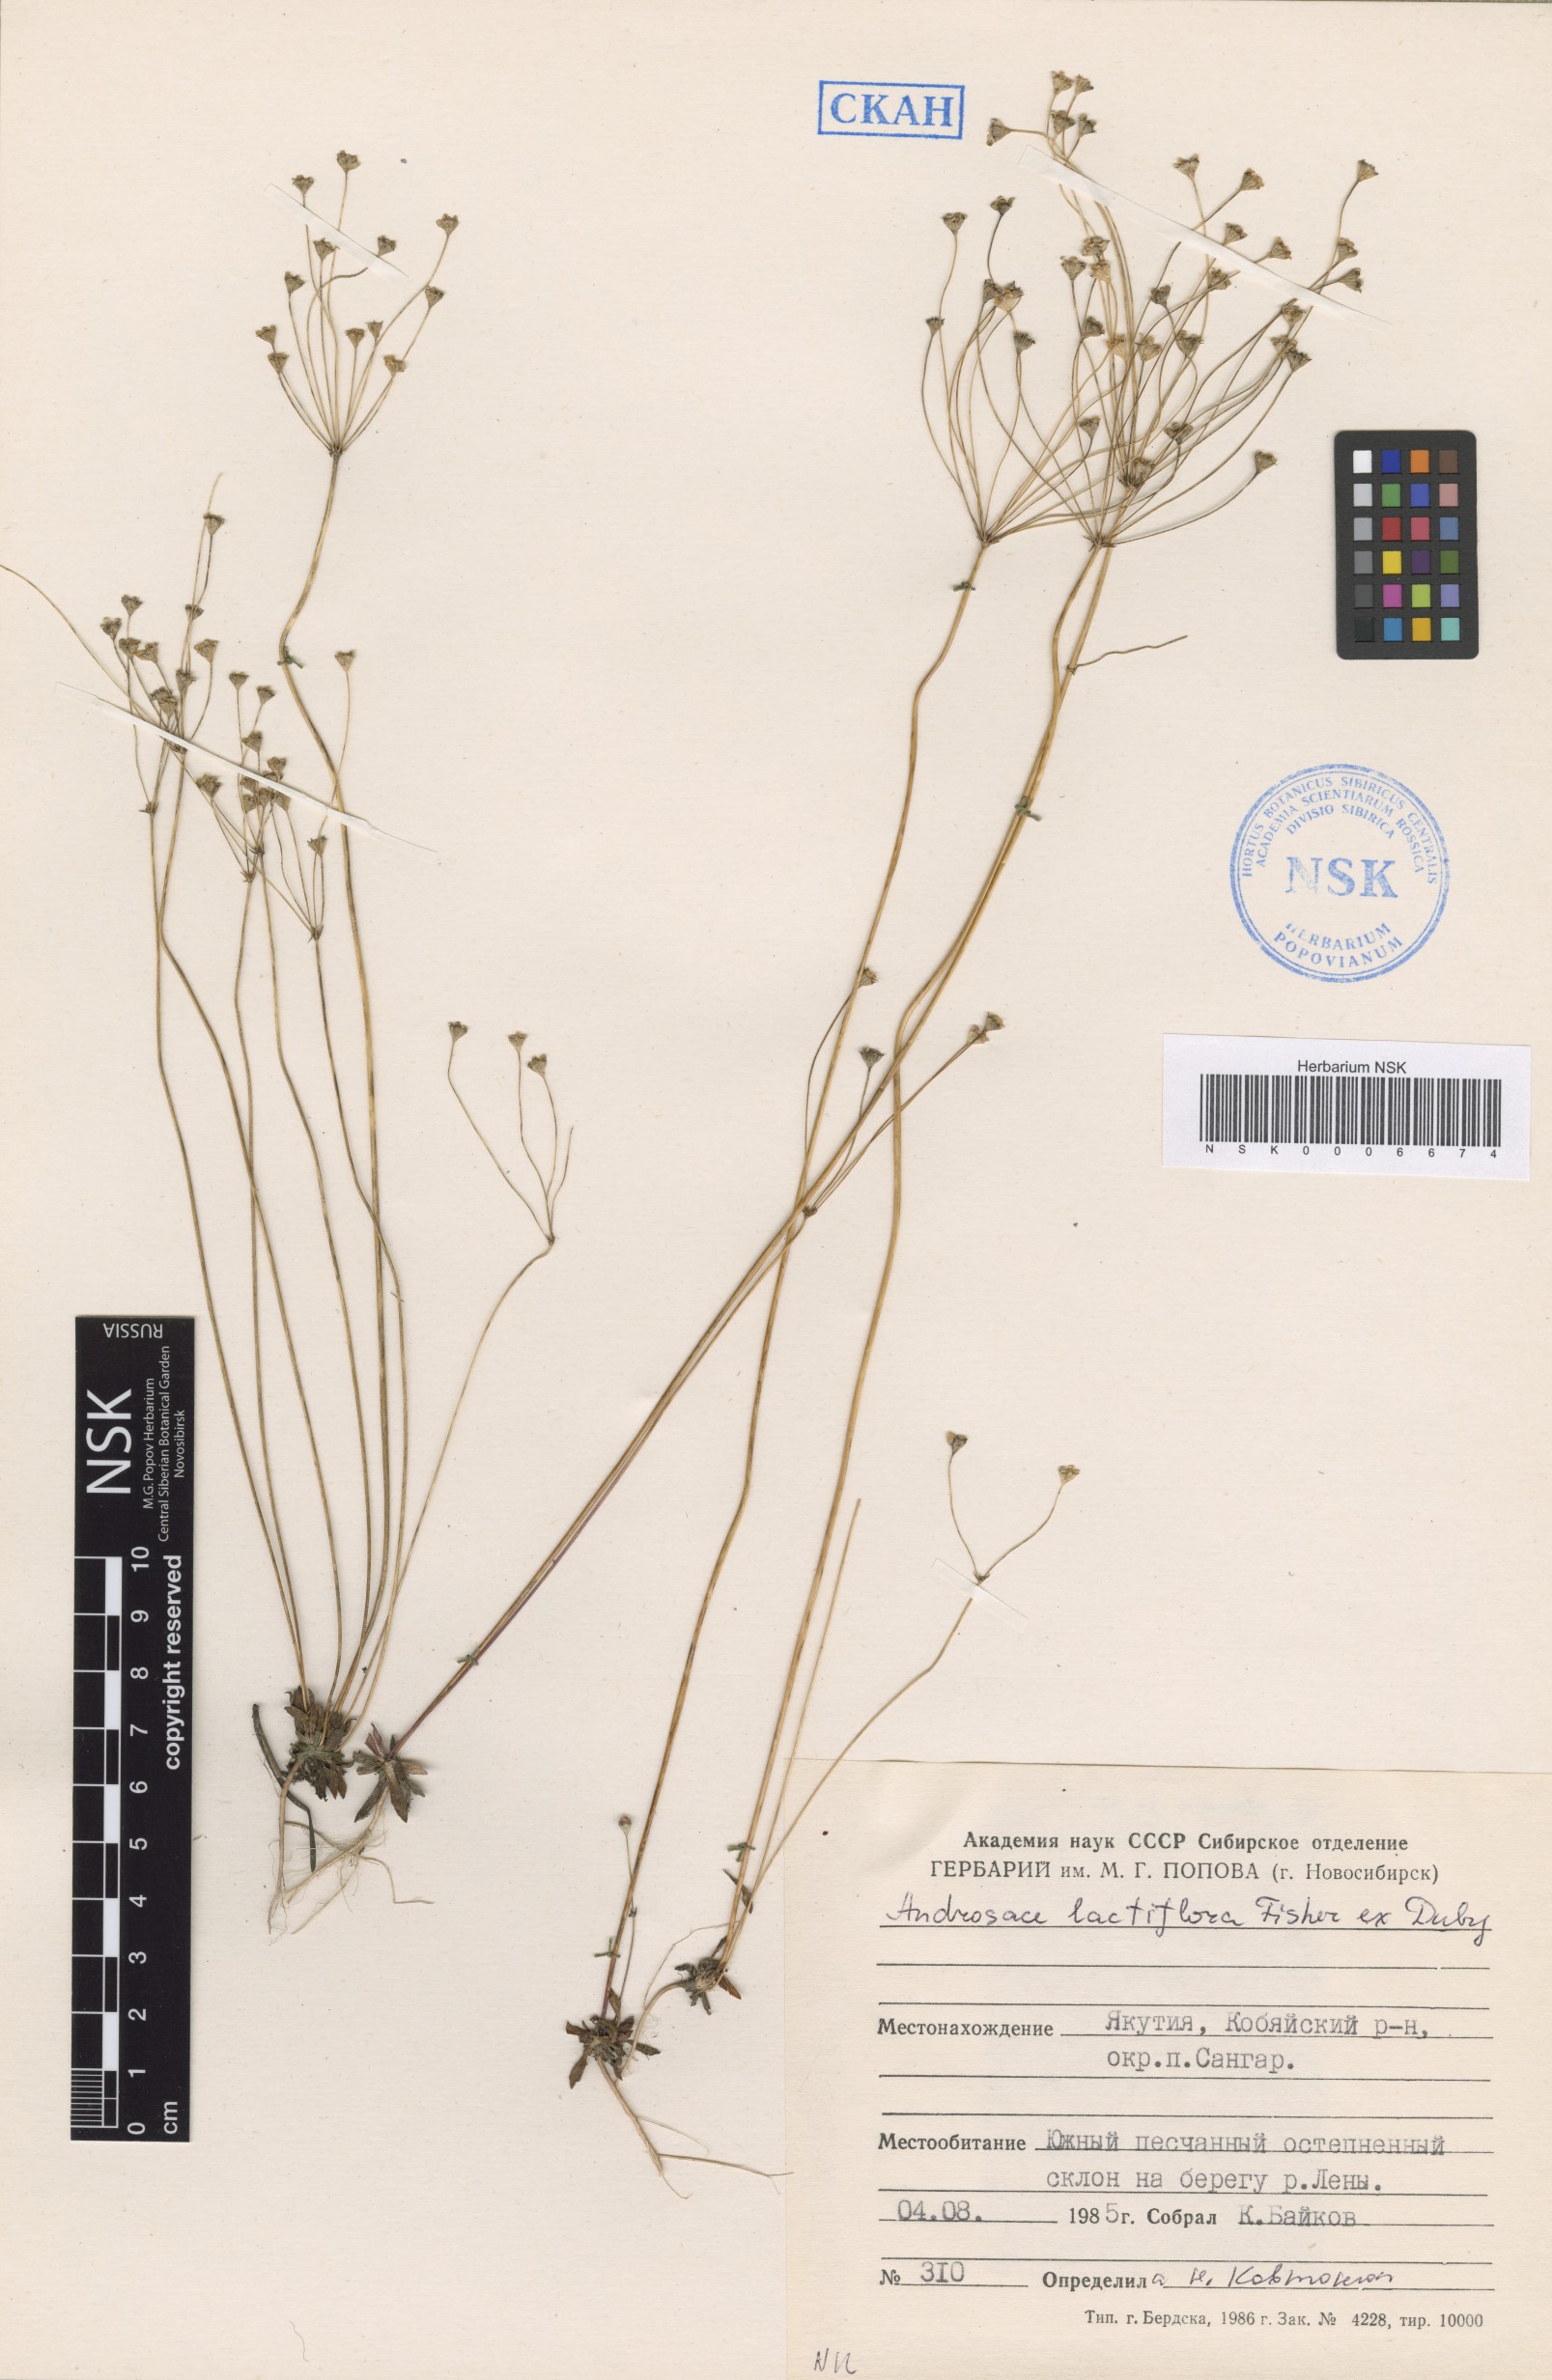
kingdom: Plantae
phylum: Tracheophyta
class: Magnoliopsida
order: Ericales
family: Primulaceae
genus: Androsace
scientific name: Androsace lactiflora
